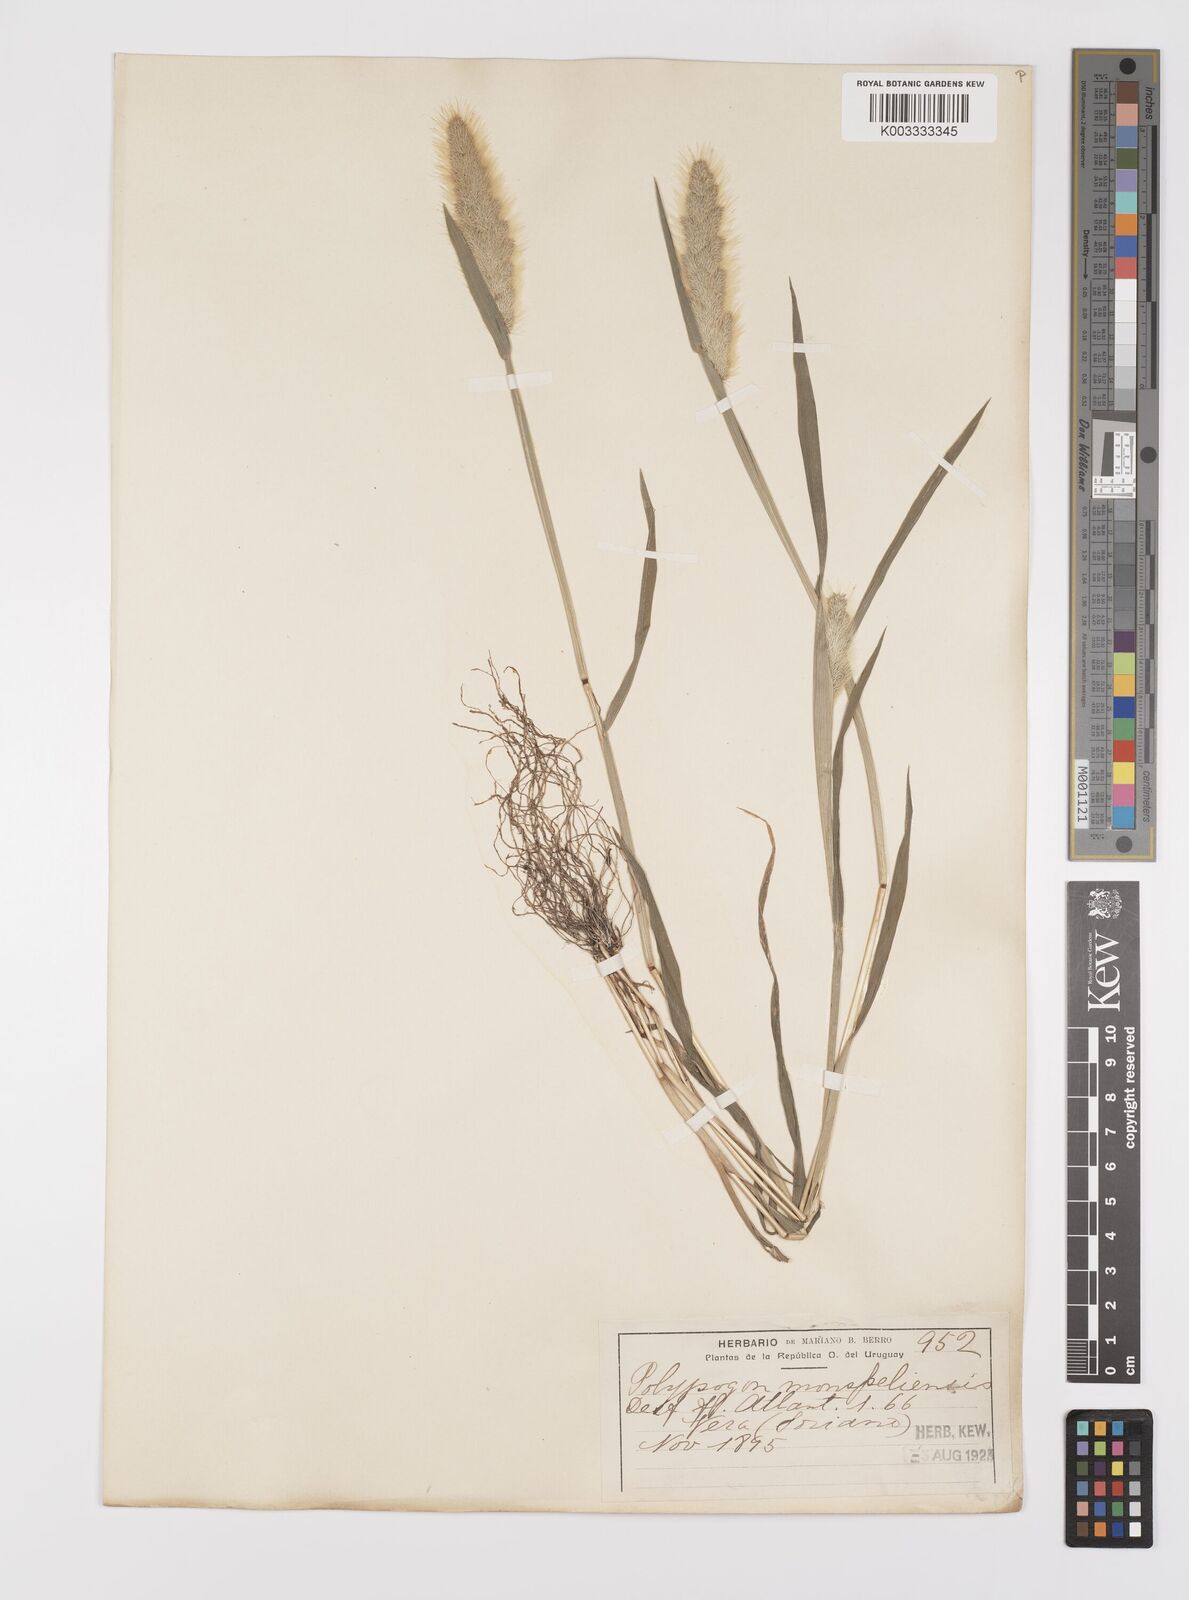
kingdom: Plantae
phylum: Tracheophyta
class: Liliopsida
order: Poales
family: Poaceae
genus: Polypogon
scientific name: Polypogon monspeliensis
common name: Annual rabbitsfoot grass
